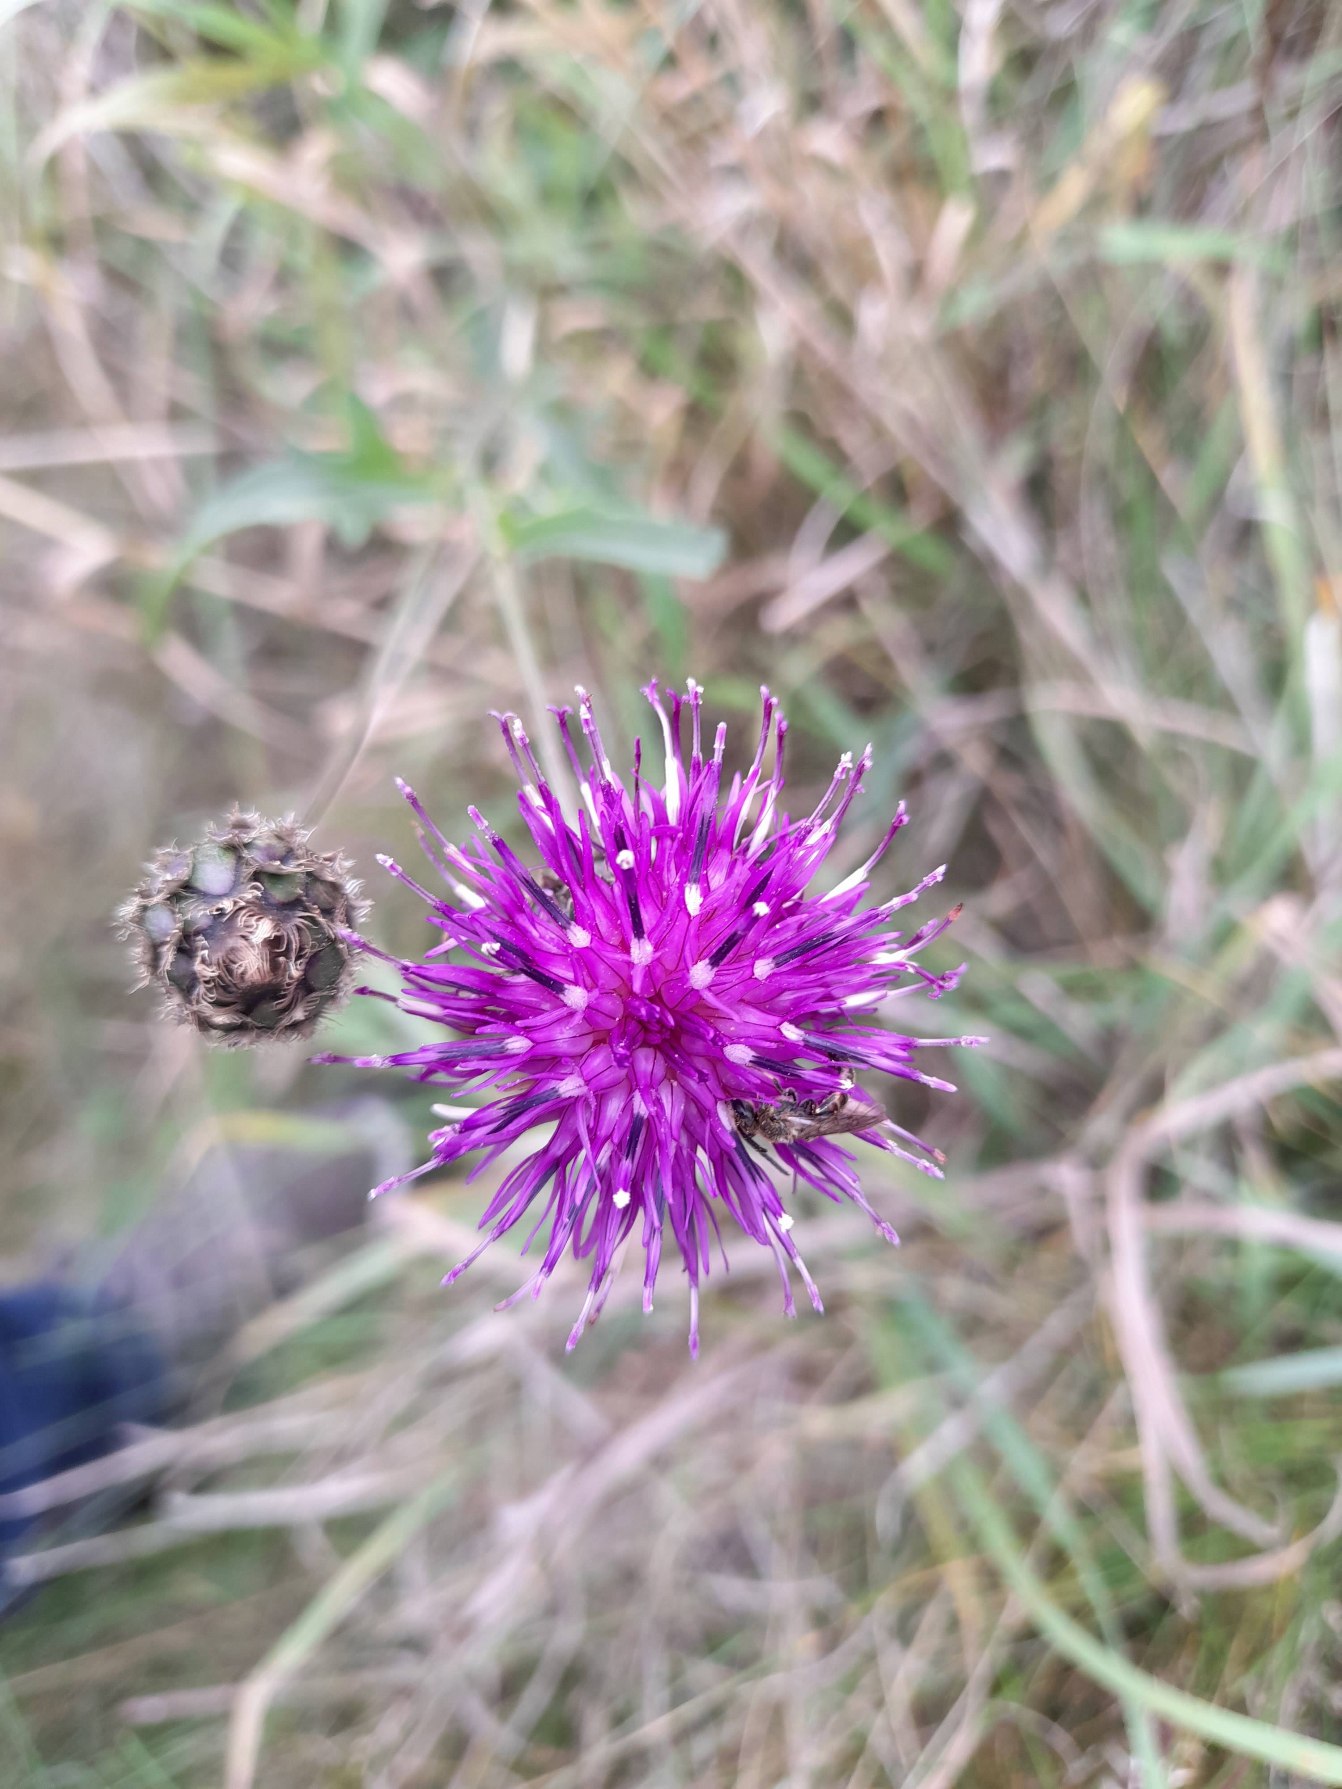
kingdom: Plantae
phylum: Tracheophyta
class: Magnoliopsida
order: Asterales
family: Asteraceae
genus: Centaurea
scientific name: Centaurea scabiosa
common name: Stor knopurt
